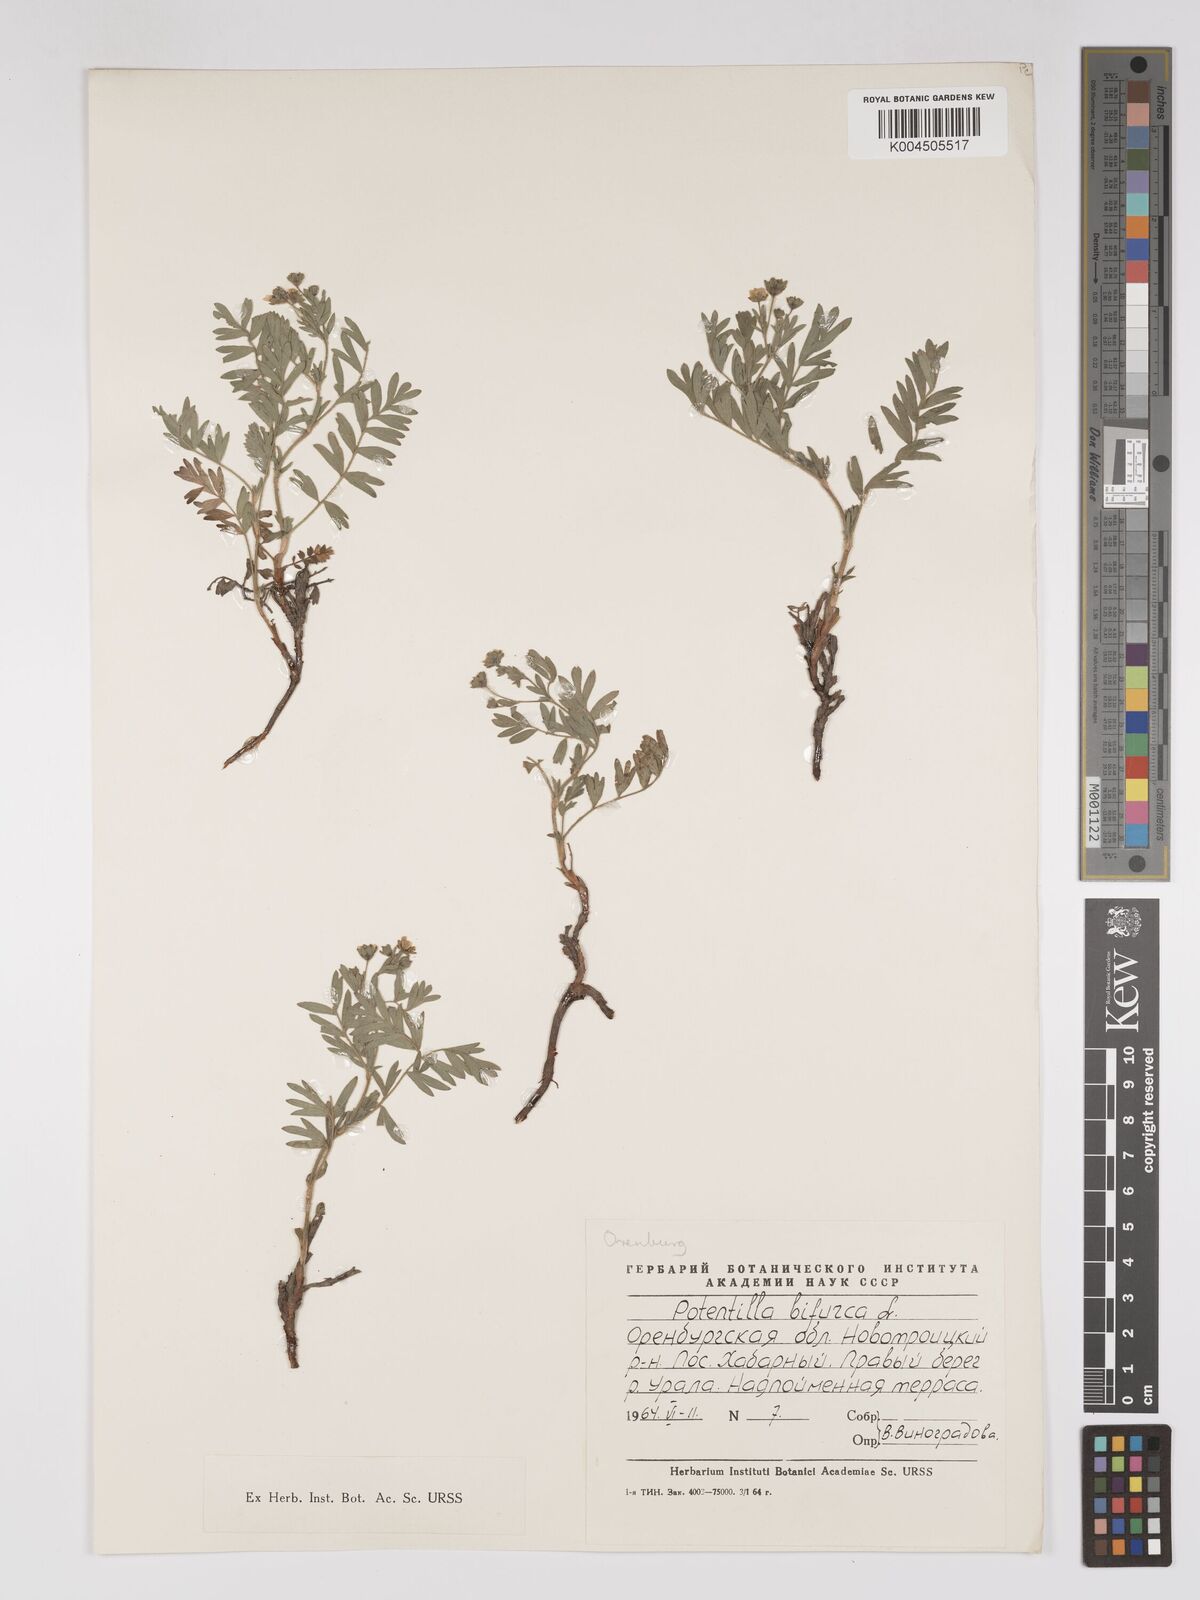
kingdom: Plantae
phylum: Tracheophyta
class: Magnoliopsida
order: Rosales
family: Rosaceae
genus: Sibbaldianthe
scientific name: Sibbaldianthe bifurca
